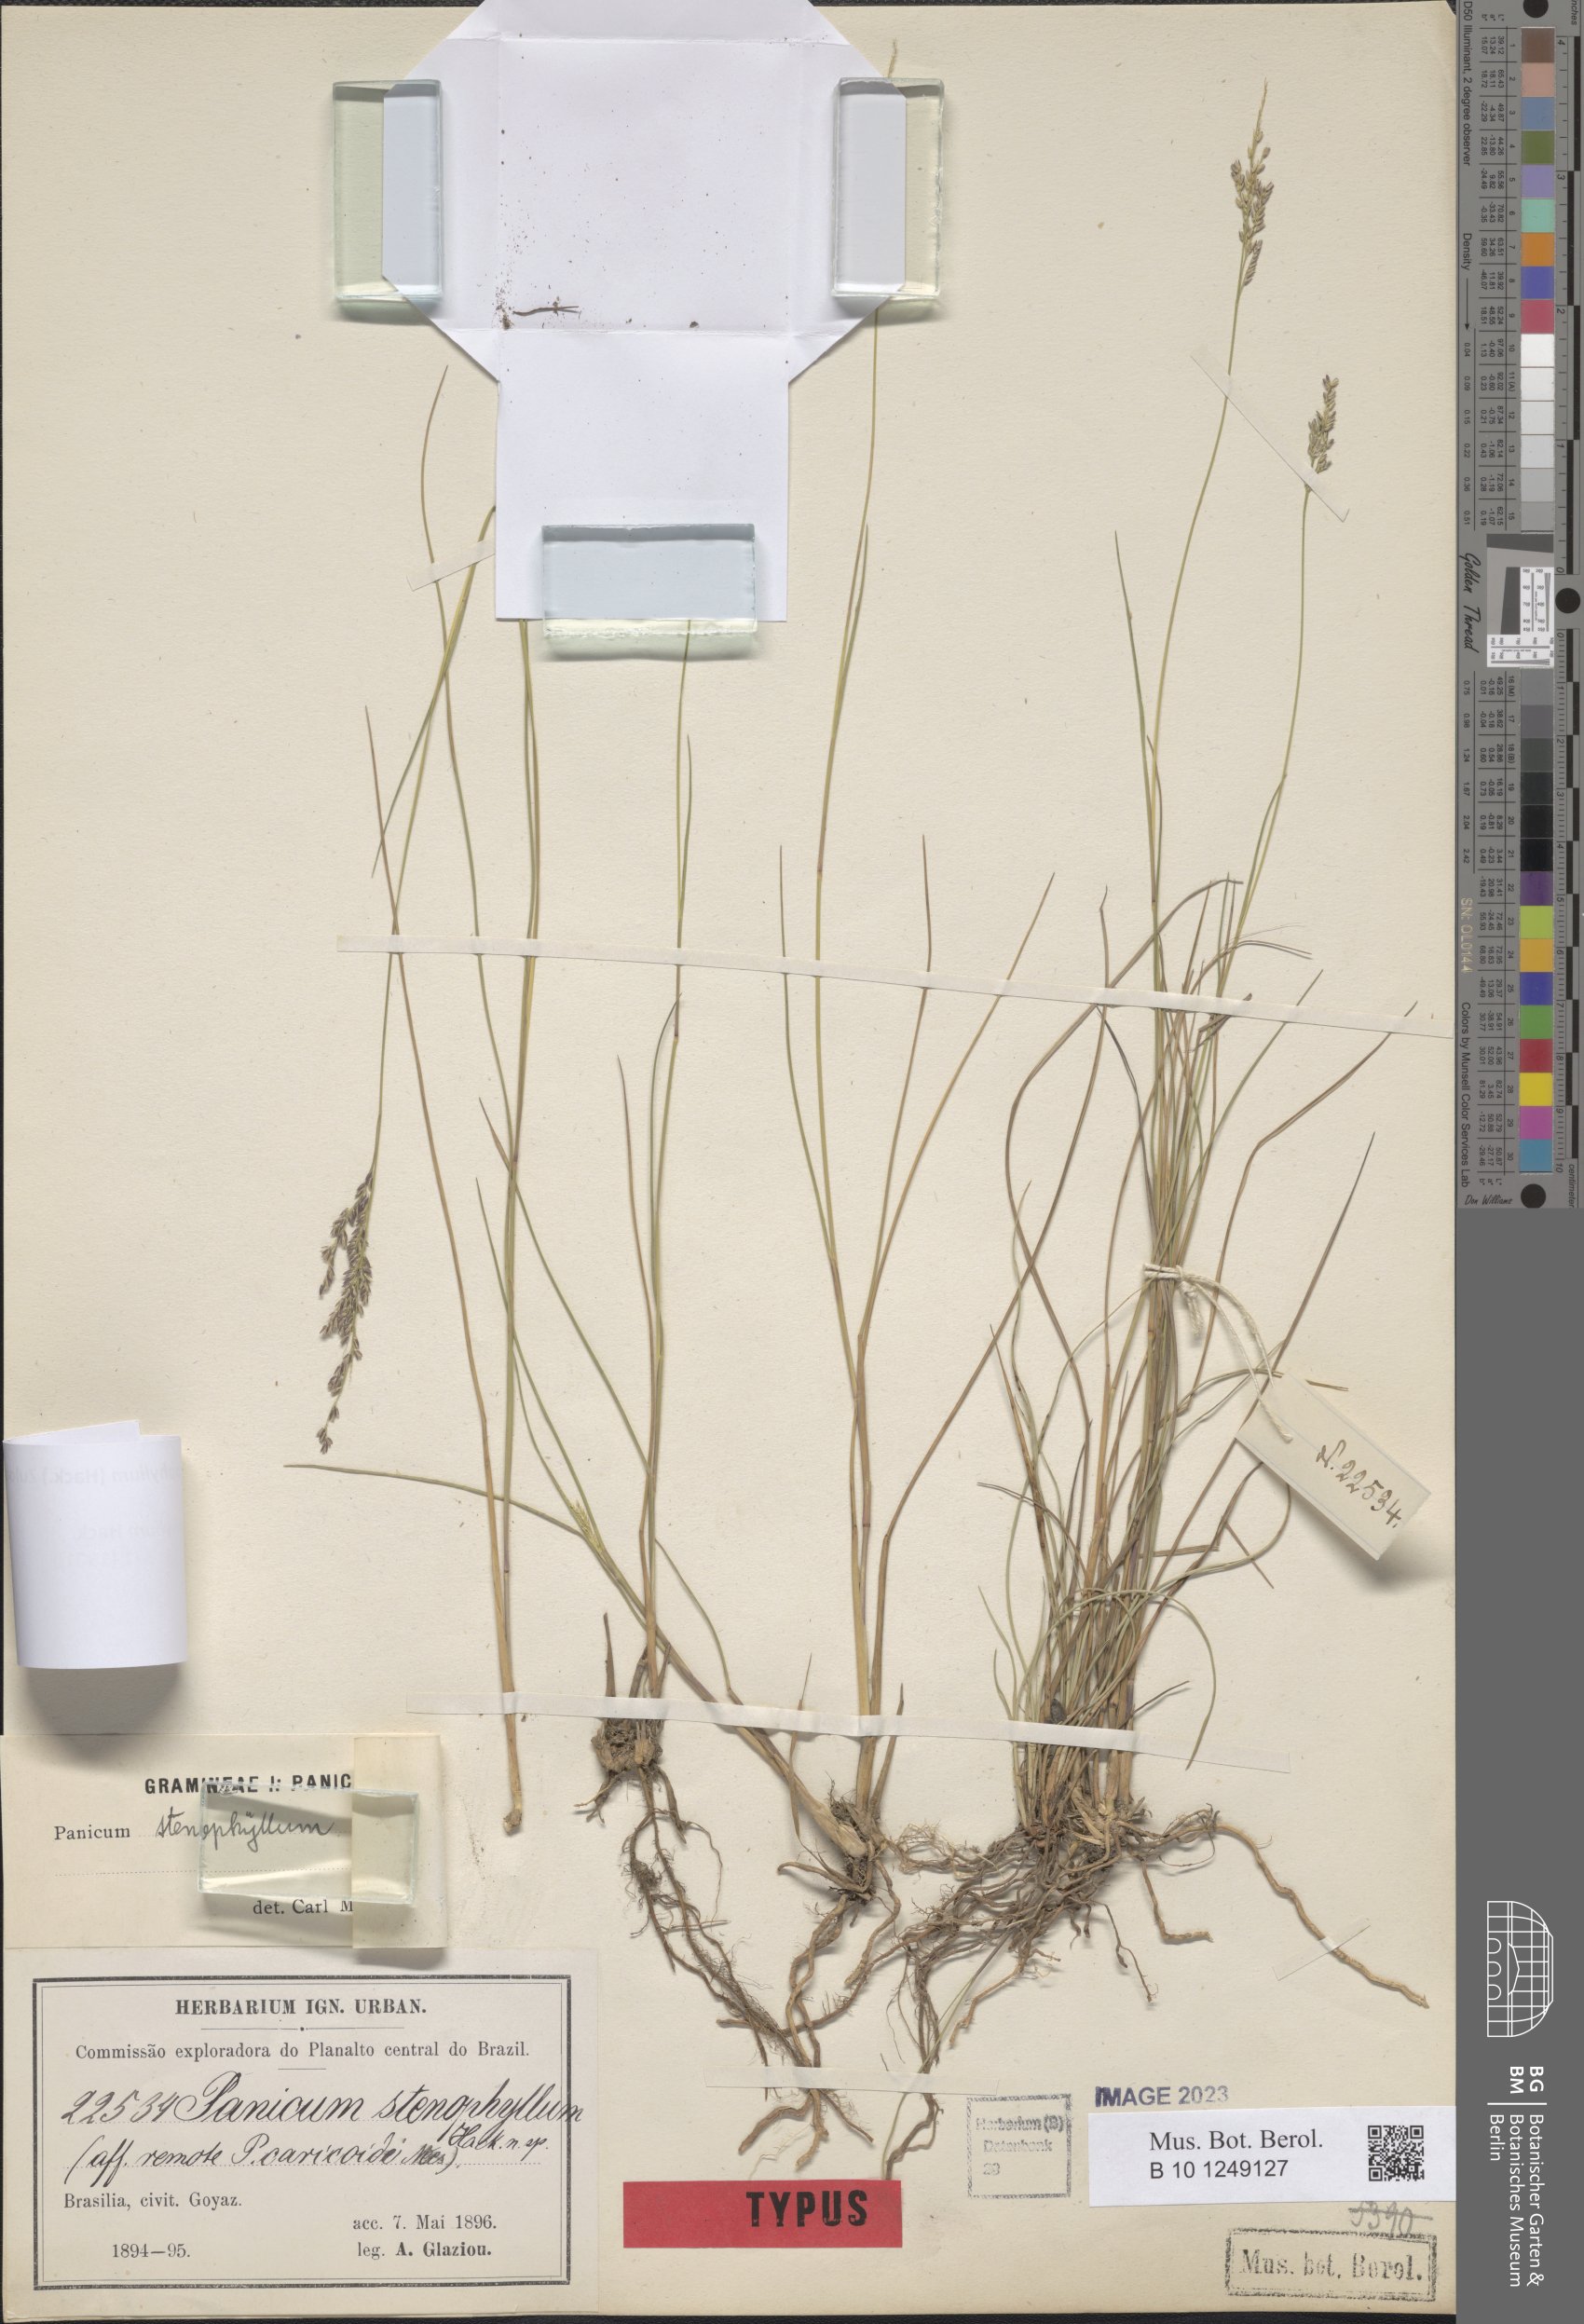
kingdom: Plantae
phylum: Tracheophyta
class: Liliopsida
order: Poales
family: Poaceae
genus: Steinchisma
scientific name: Steinchisma stenophyllum
